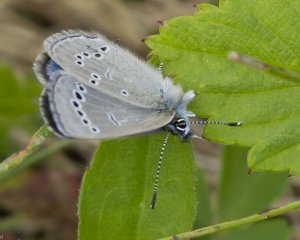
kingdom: Animalia
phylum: Arthropoda
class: Insecta
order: Lepidoptera
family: Lycaenidae
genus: Glaucopsyche
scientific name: Glaucopsyche lygdamus
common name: Silvery Blue
